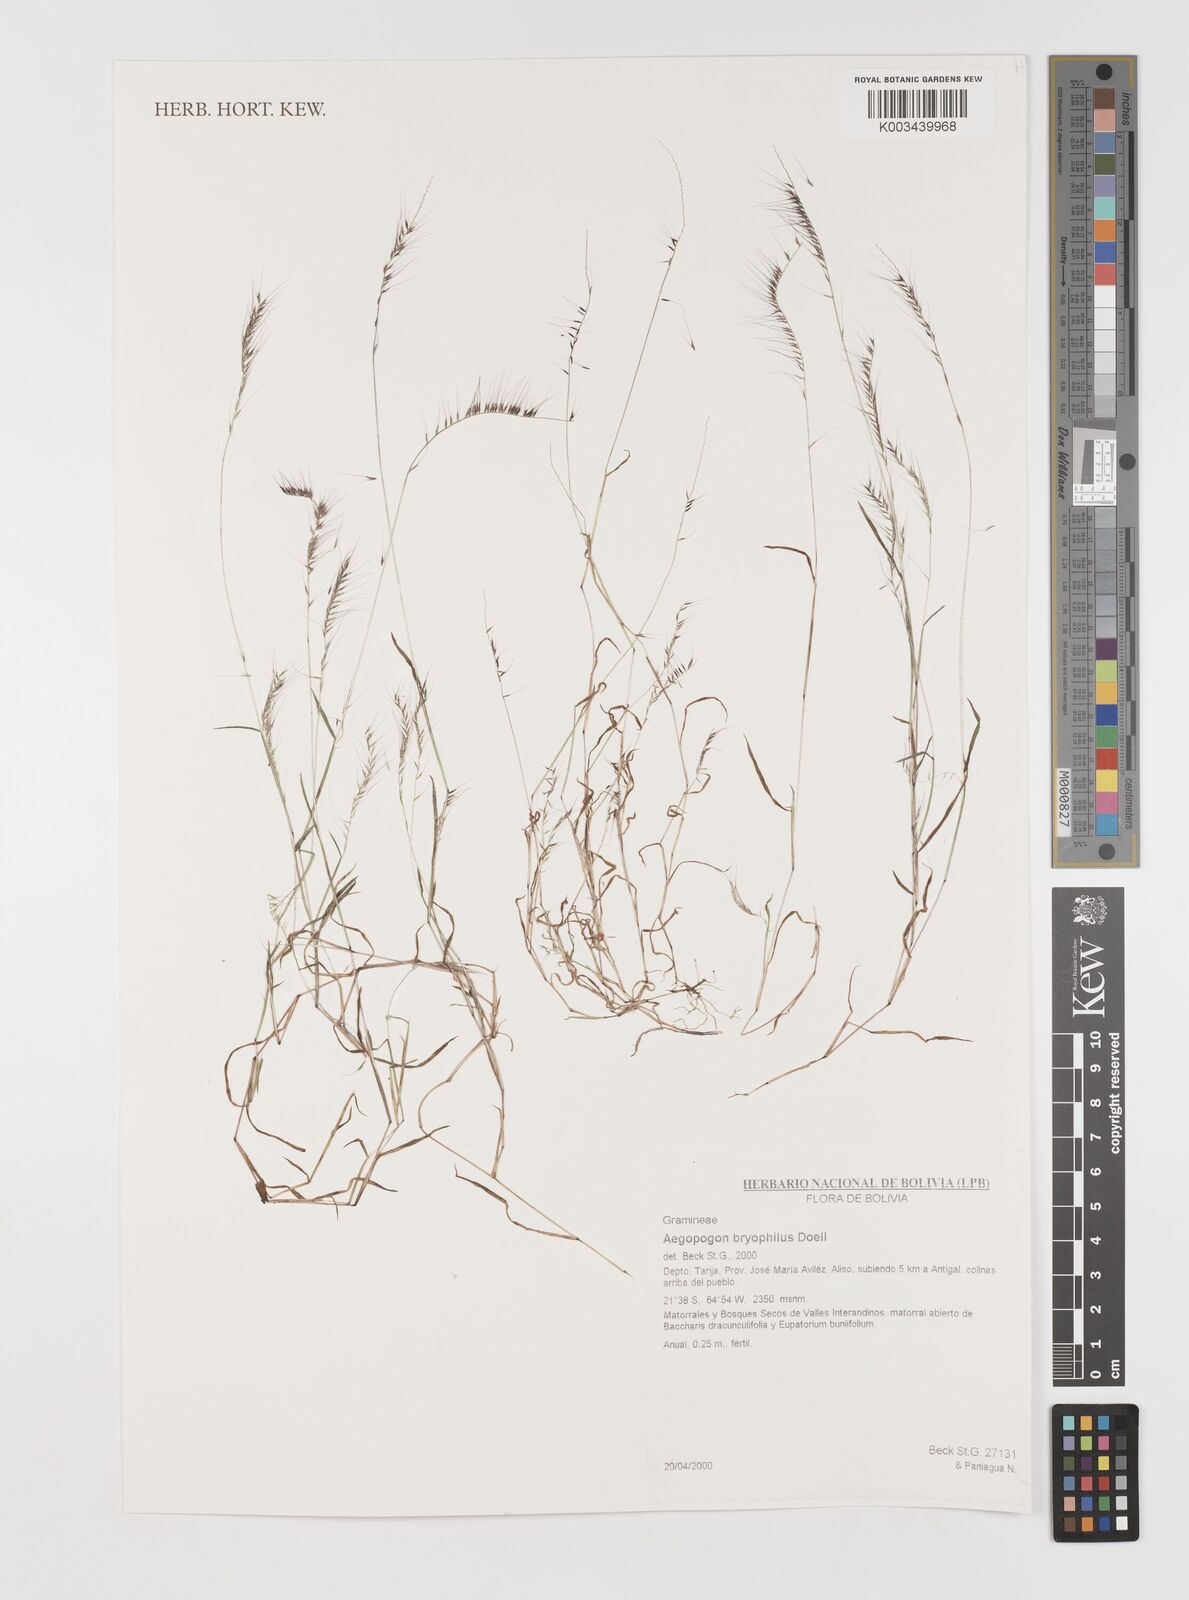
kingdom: Plantae
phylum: Tracheophyta
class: Liliopsida
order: Poales
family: Poaceae
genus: Muhlenbergia
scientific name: Muhlenbergia bryophilus
